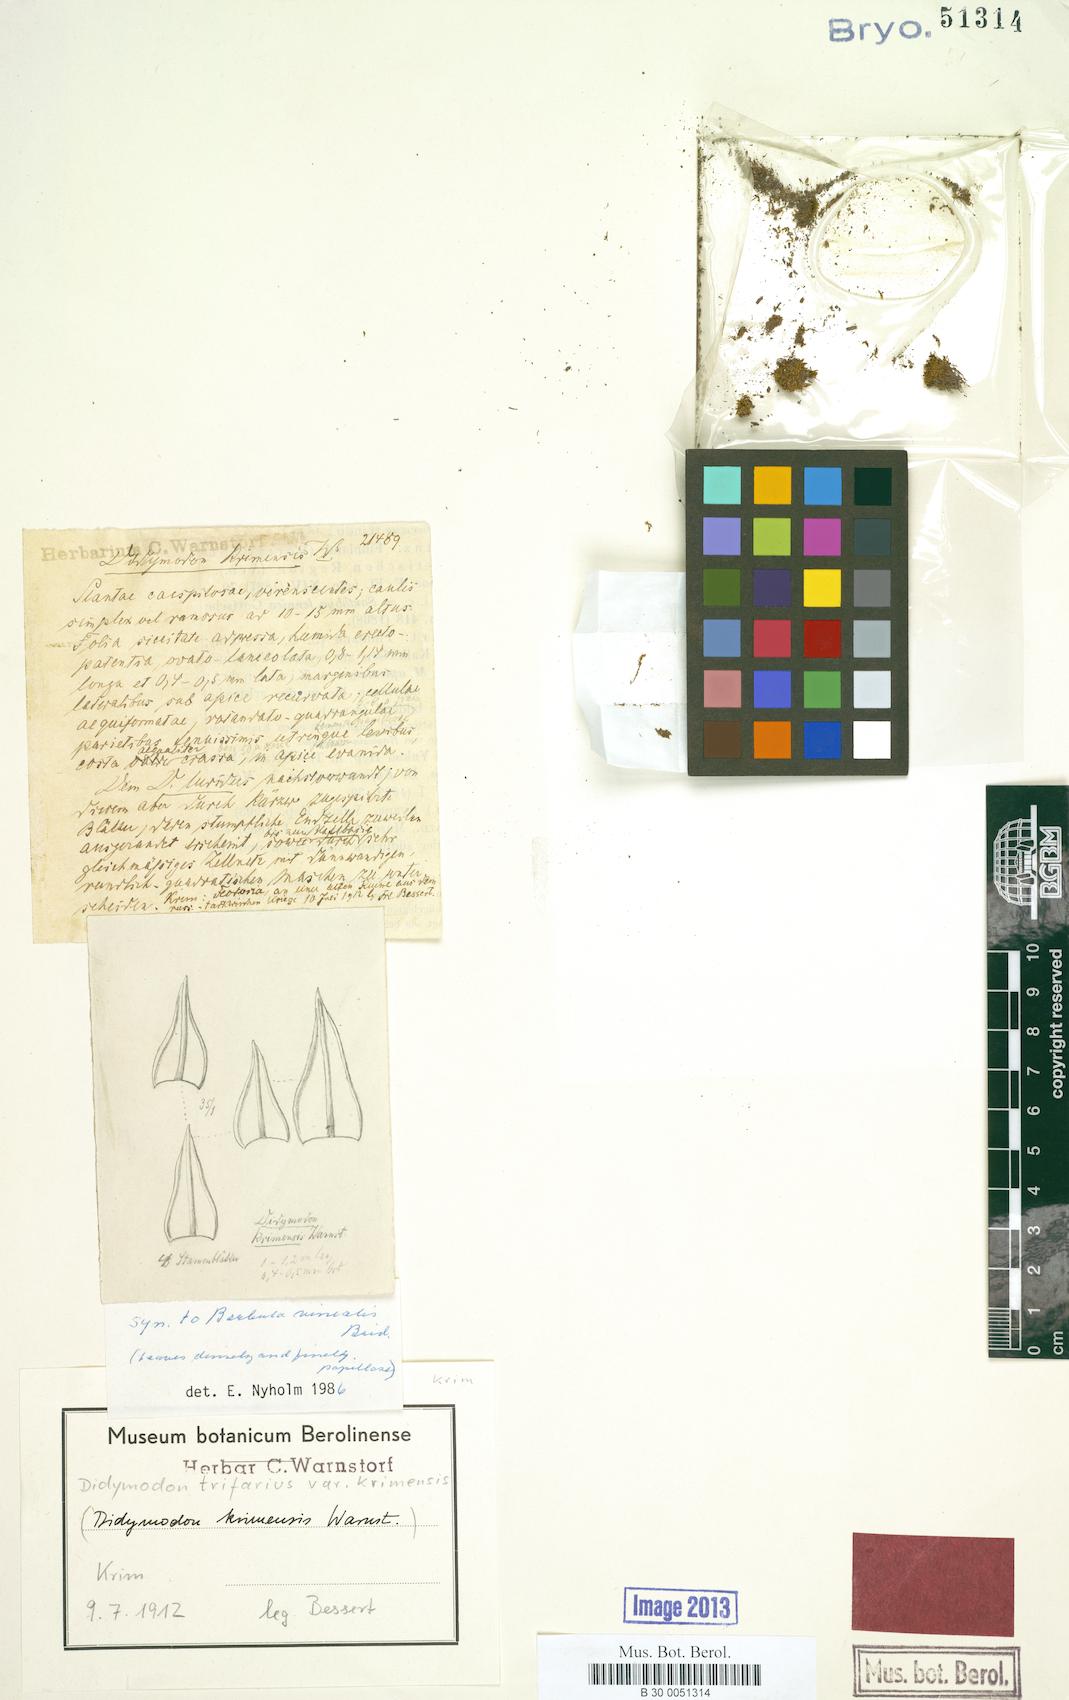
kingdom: Plantae
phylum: Bryophyta
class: Bryopsida
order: Grimmiales
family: Saelaniaceae
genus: Saelania
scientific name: Saelania glaucescens
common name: Blue dew-moss
